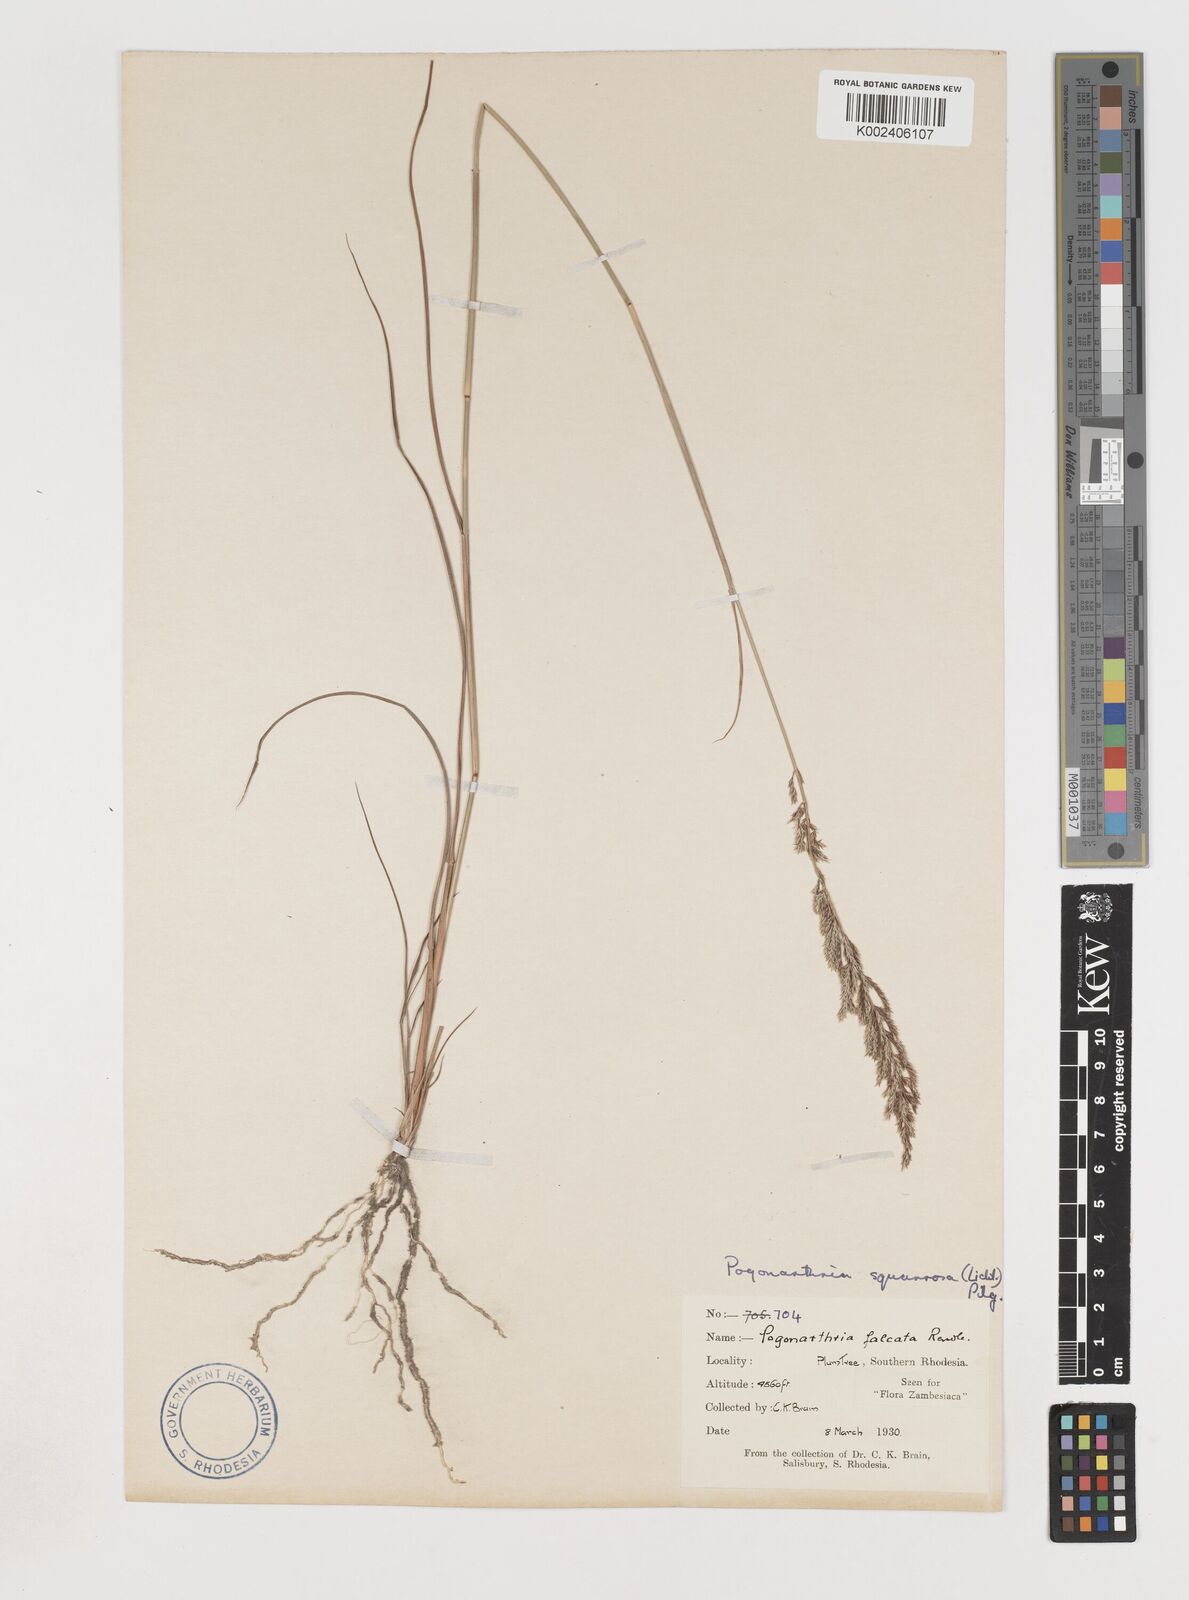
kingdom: Plantae
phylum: Tracheophyta
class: Liliopsida
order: Poales
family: Poaceae
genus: Pogonarthria
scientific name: Pogonarthria squarrosa
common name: Grass
